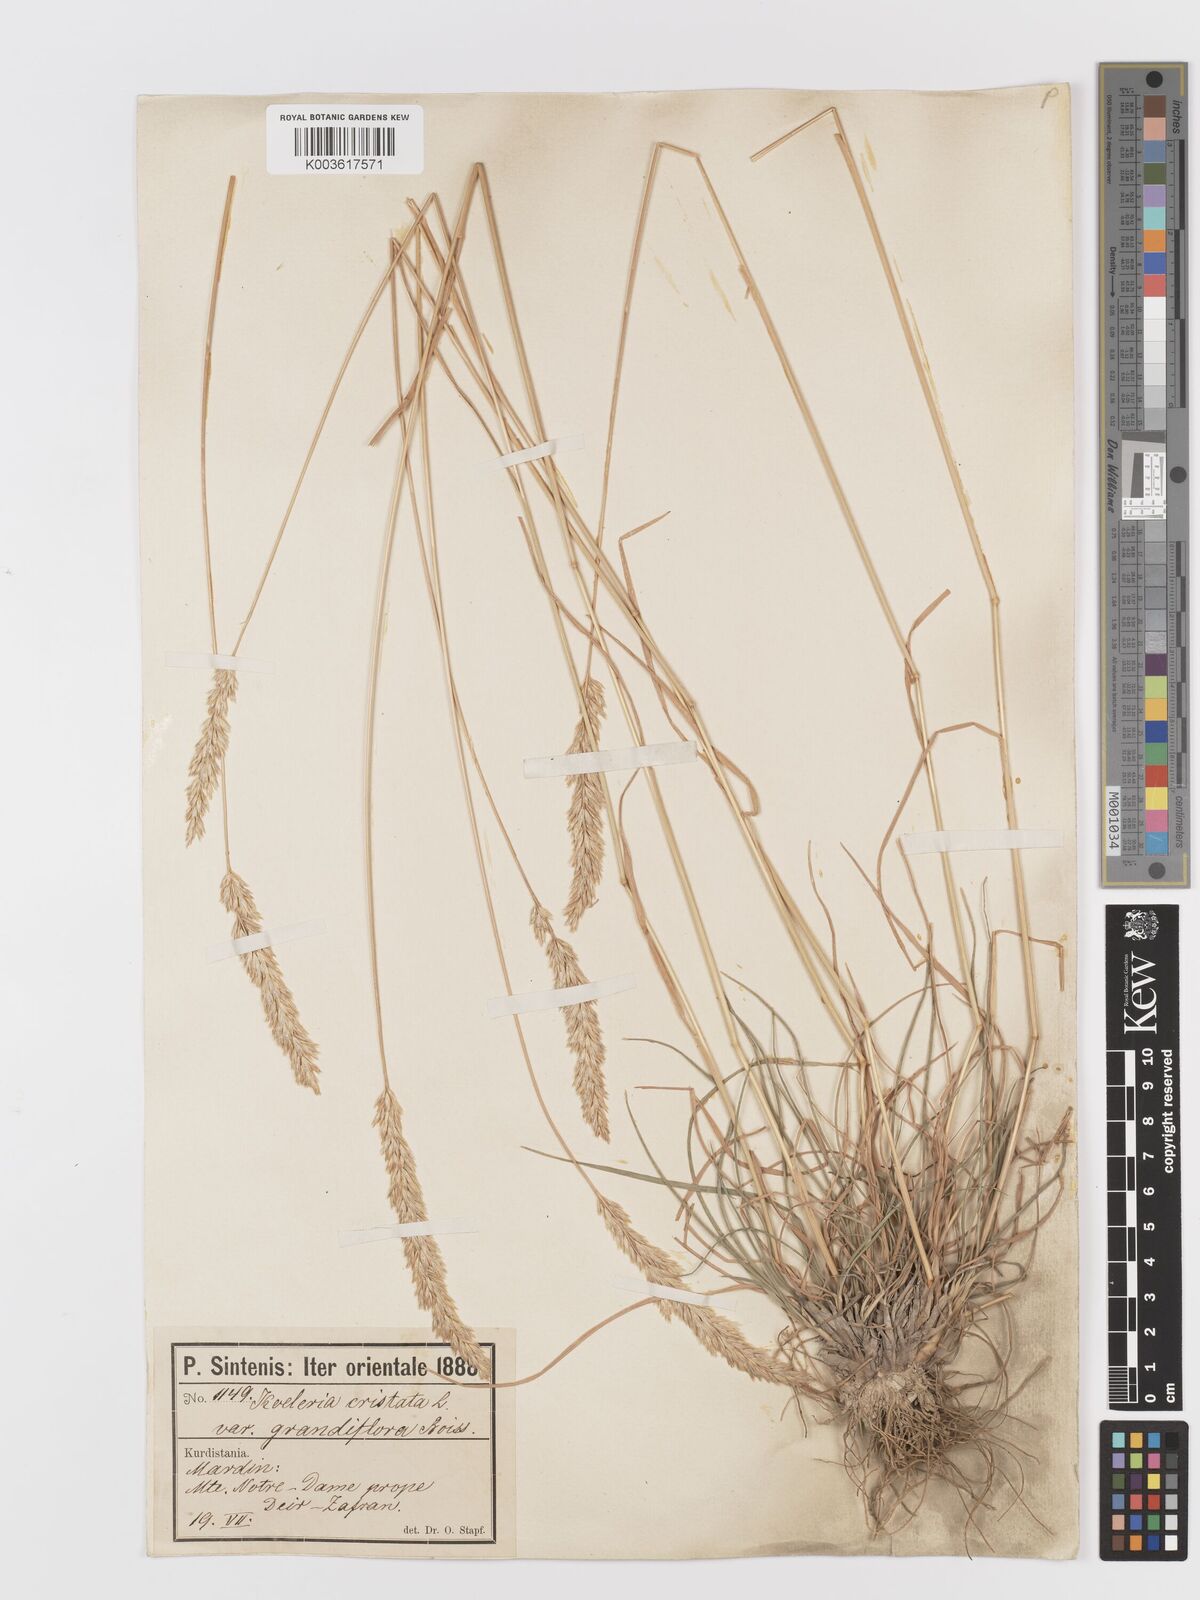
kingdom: Plantae
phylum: Tracheophyta
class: Liliopsida
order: Poales
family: Poaceae
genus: Koeleria
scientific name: Koeleria nitidula
